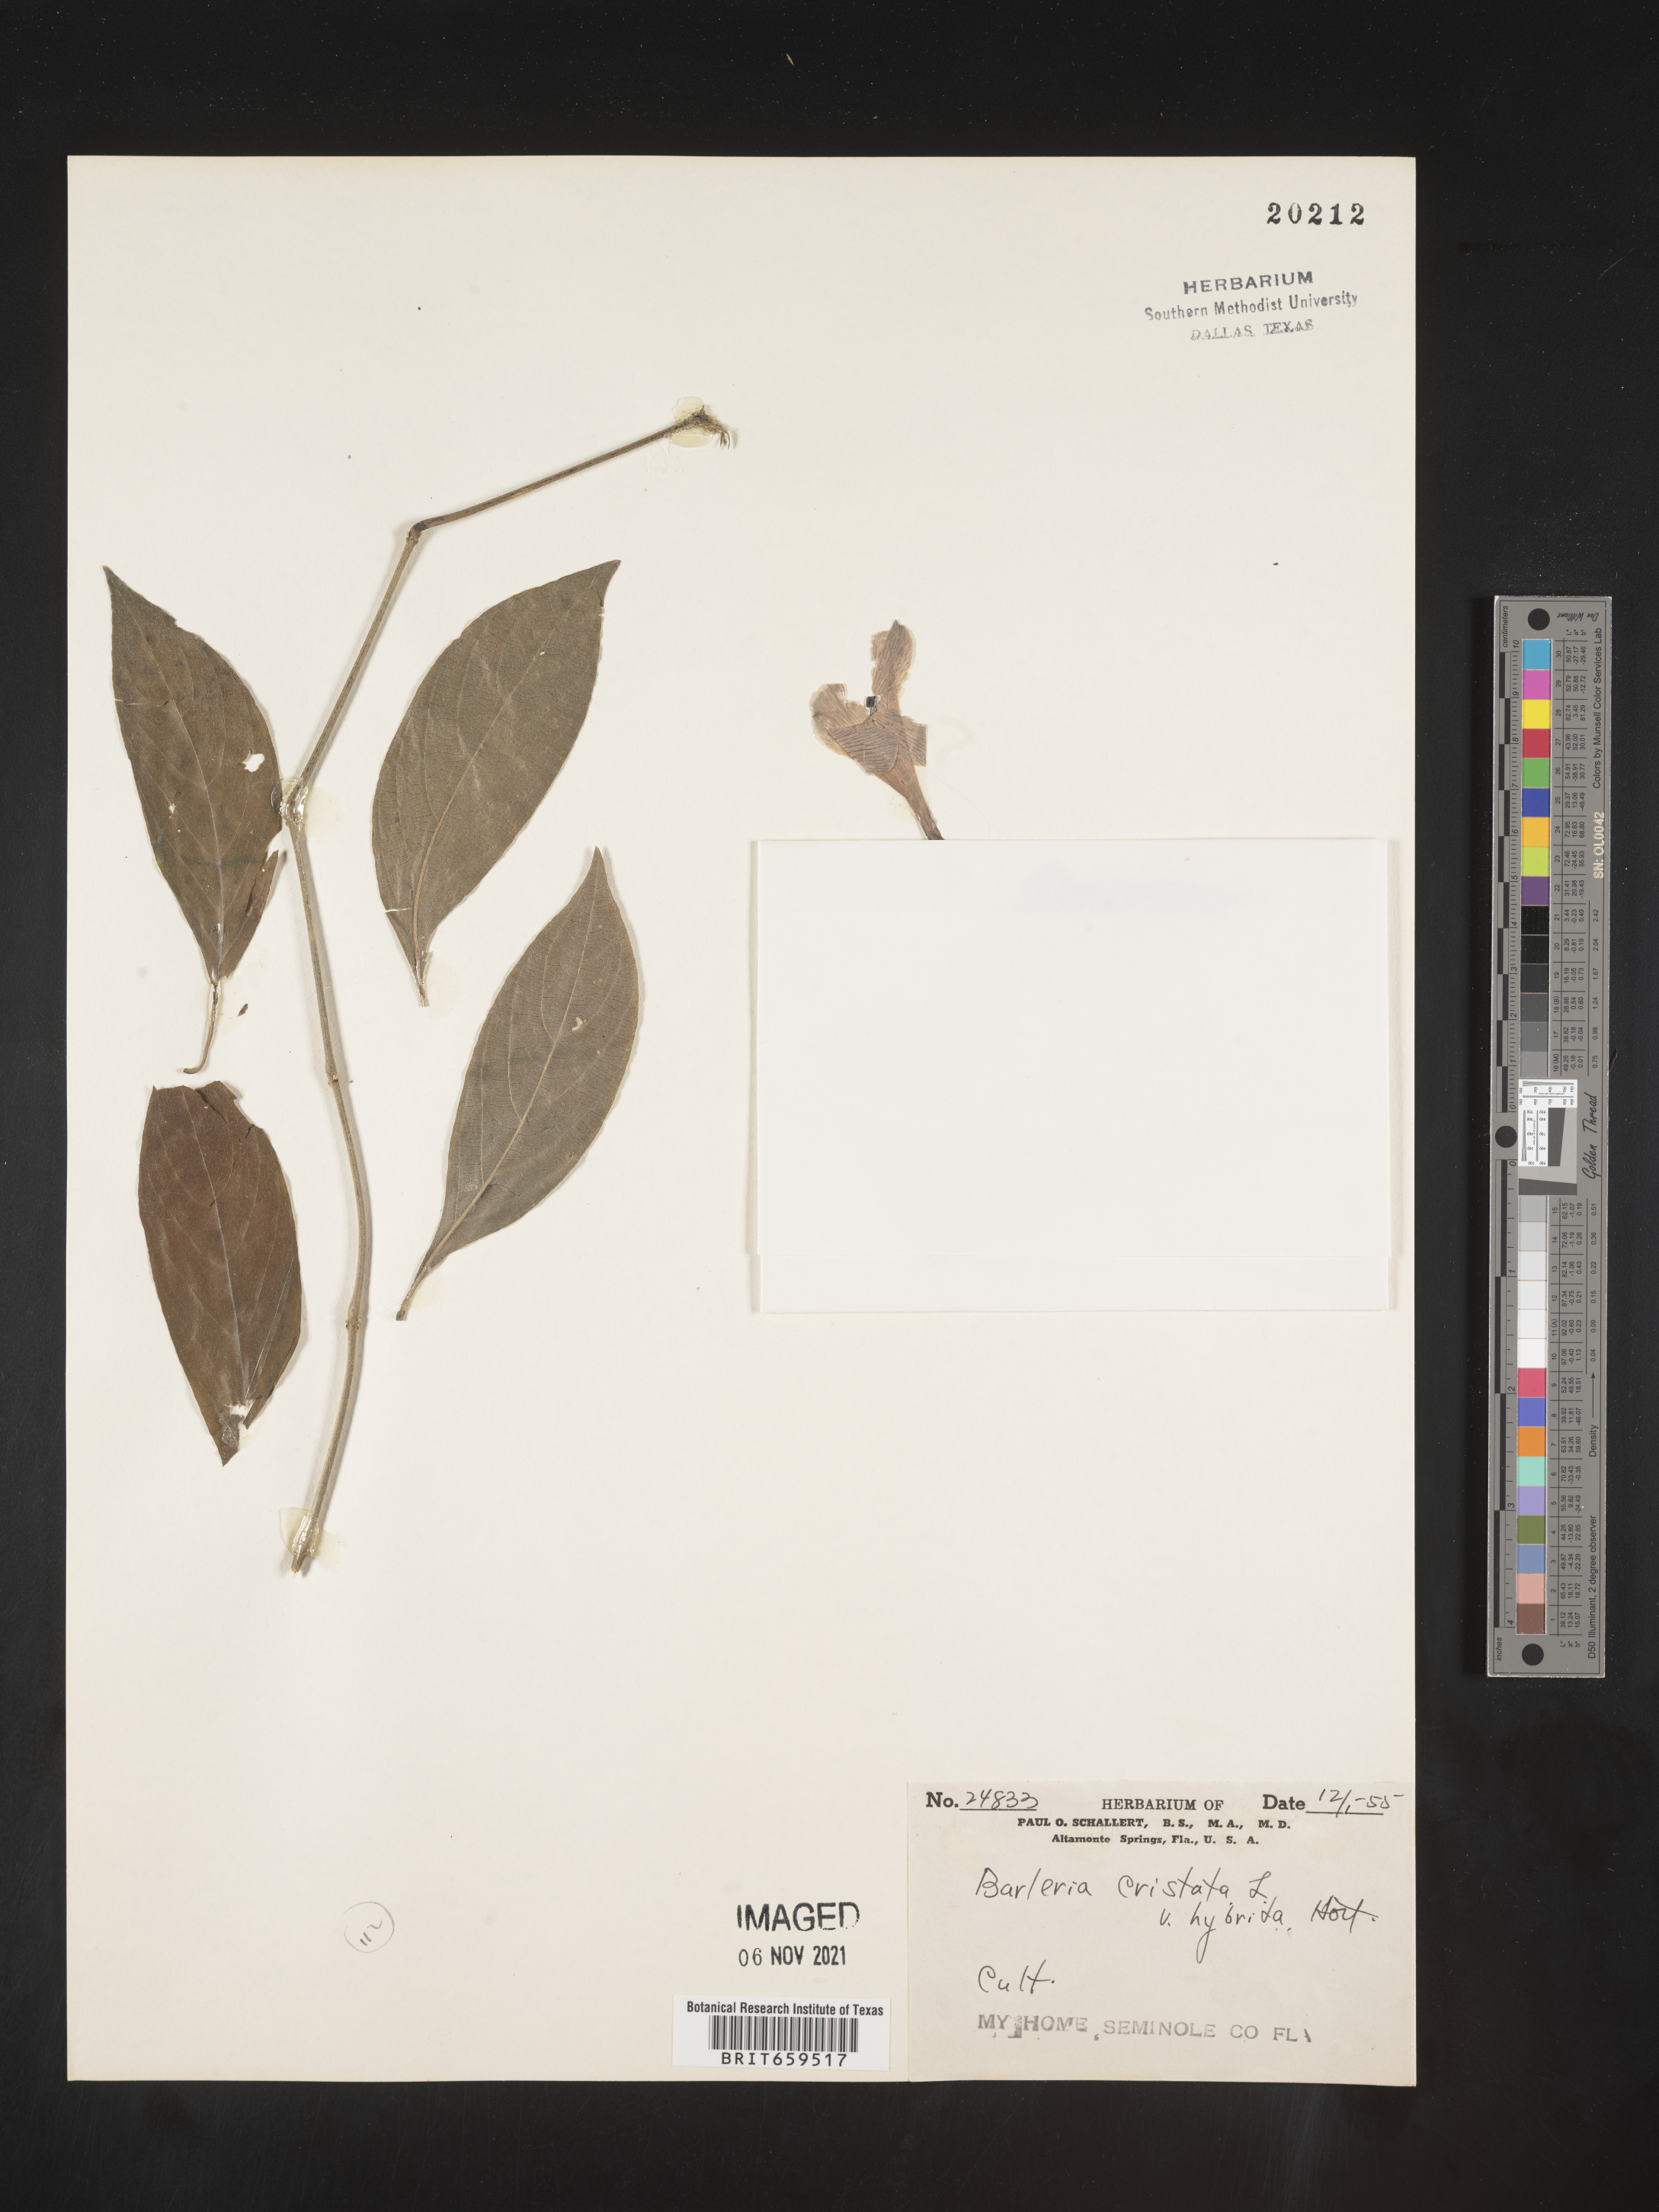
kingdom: Plantae
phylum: Tracheophyta
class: Magnoliopsida
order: Lamiales
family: Acanthaceae
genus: Barleria
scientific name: Barleria
